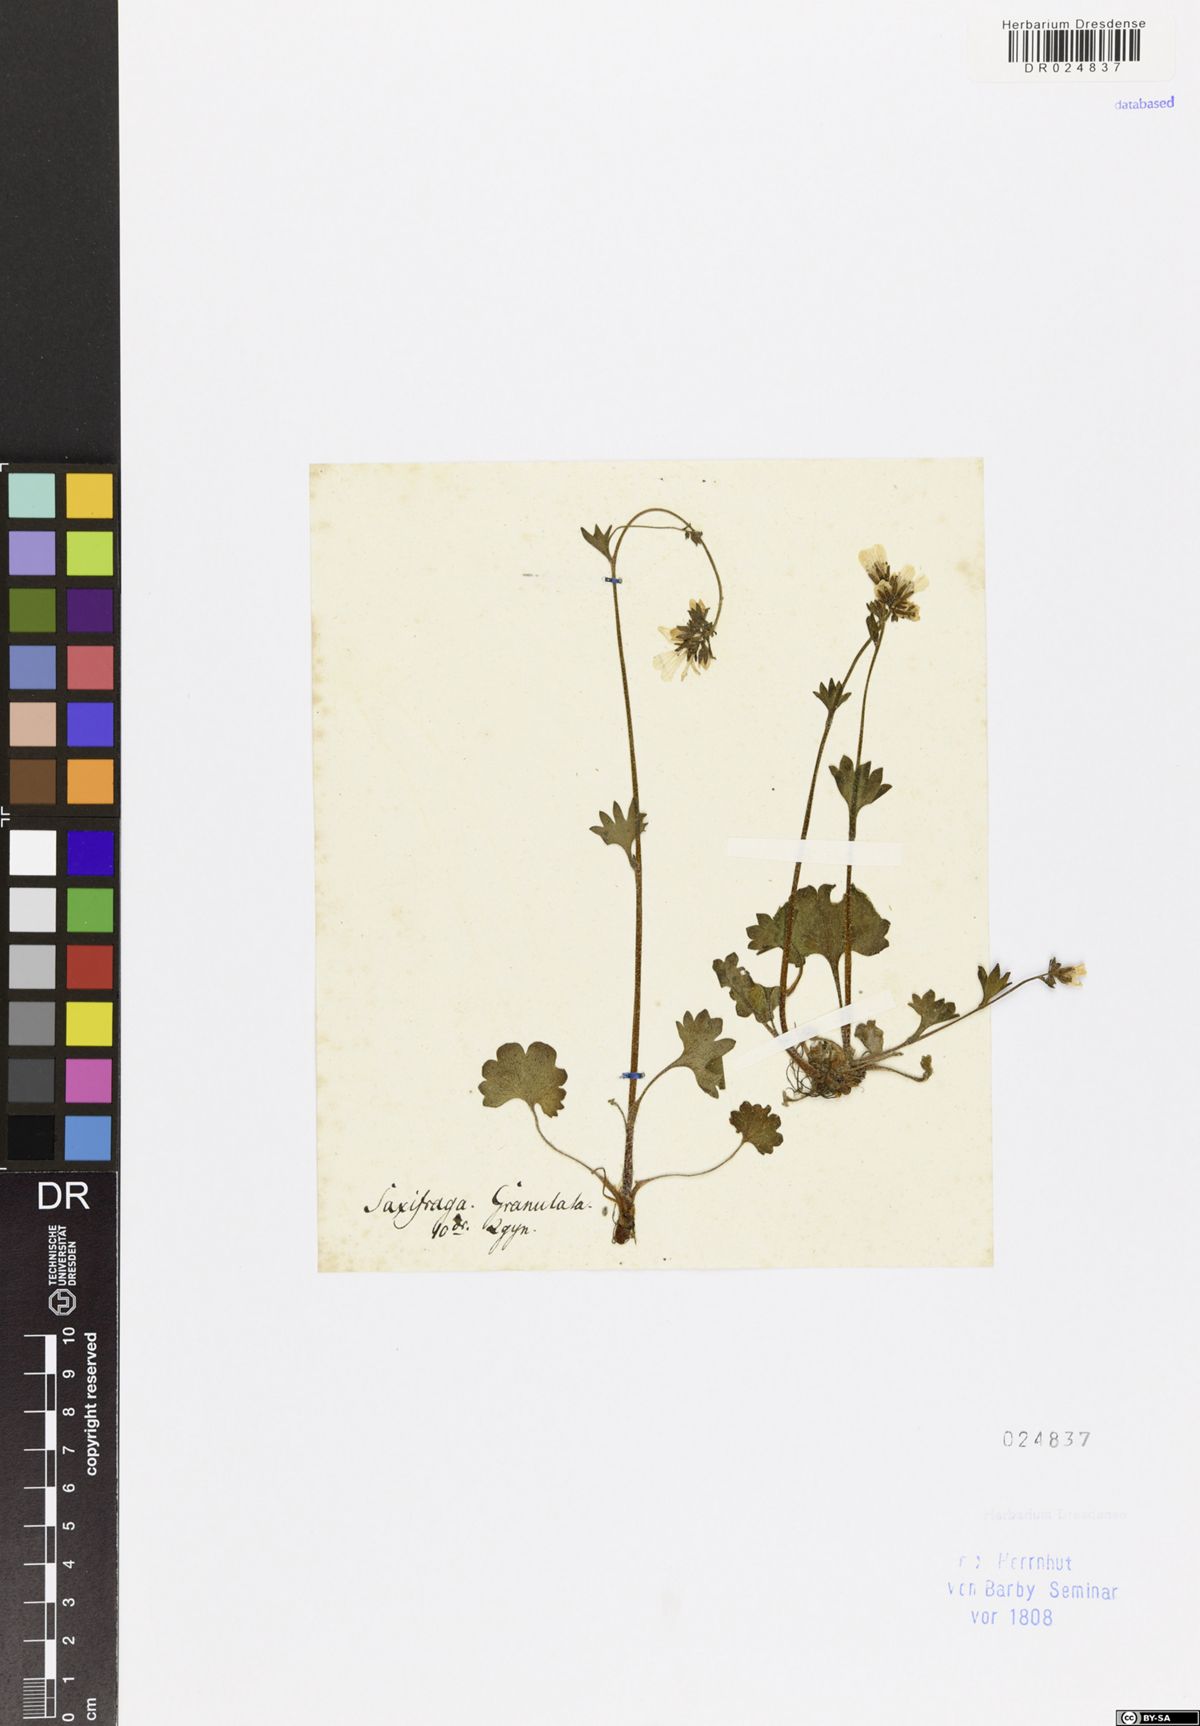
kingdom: Plantae
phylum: Tracheophyta
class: Magnoliopsida
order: Saxifragales
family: Saxifragaceae
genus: Saxifraga
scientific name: Saxifraga granulata
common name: Meadow saxifrage
